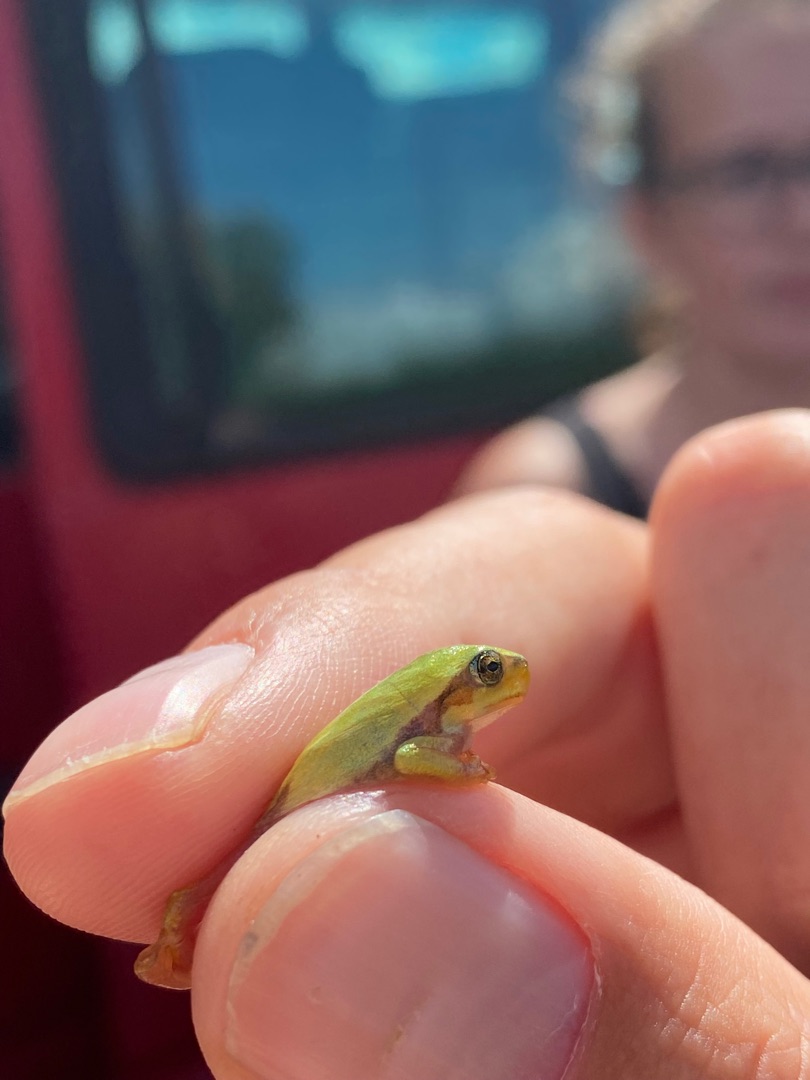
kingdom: Animalia
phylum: Chordata
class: Amphibia
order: Anura
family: Hylidae
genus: Hyla
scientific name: Hyla arborea
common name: Løvfrø
